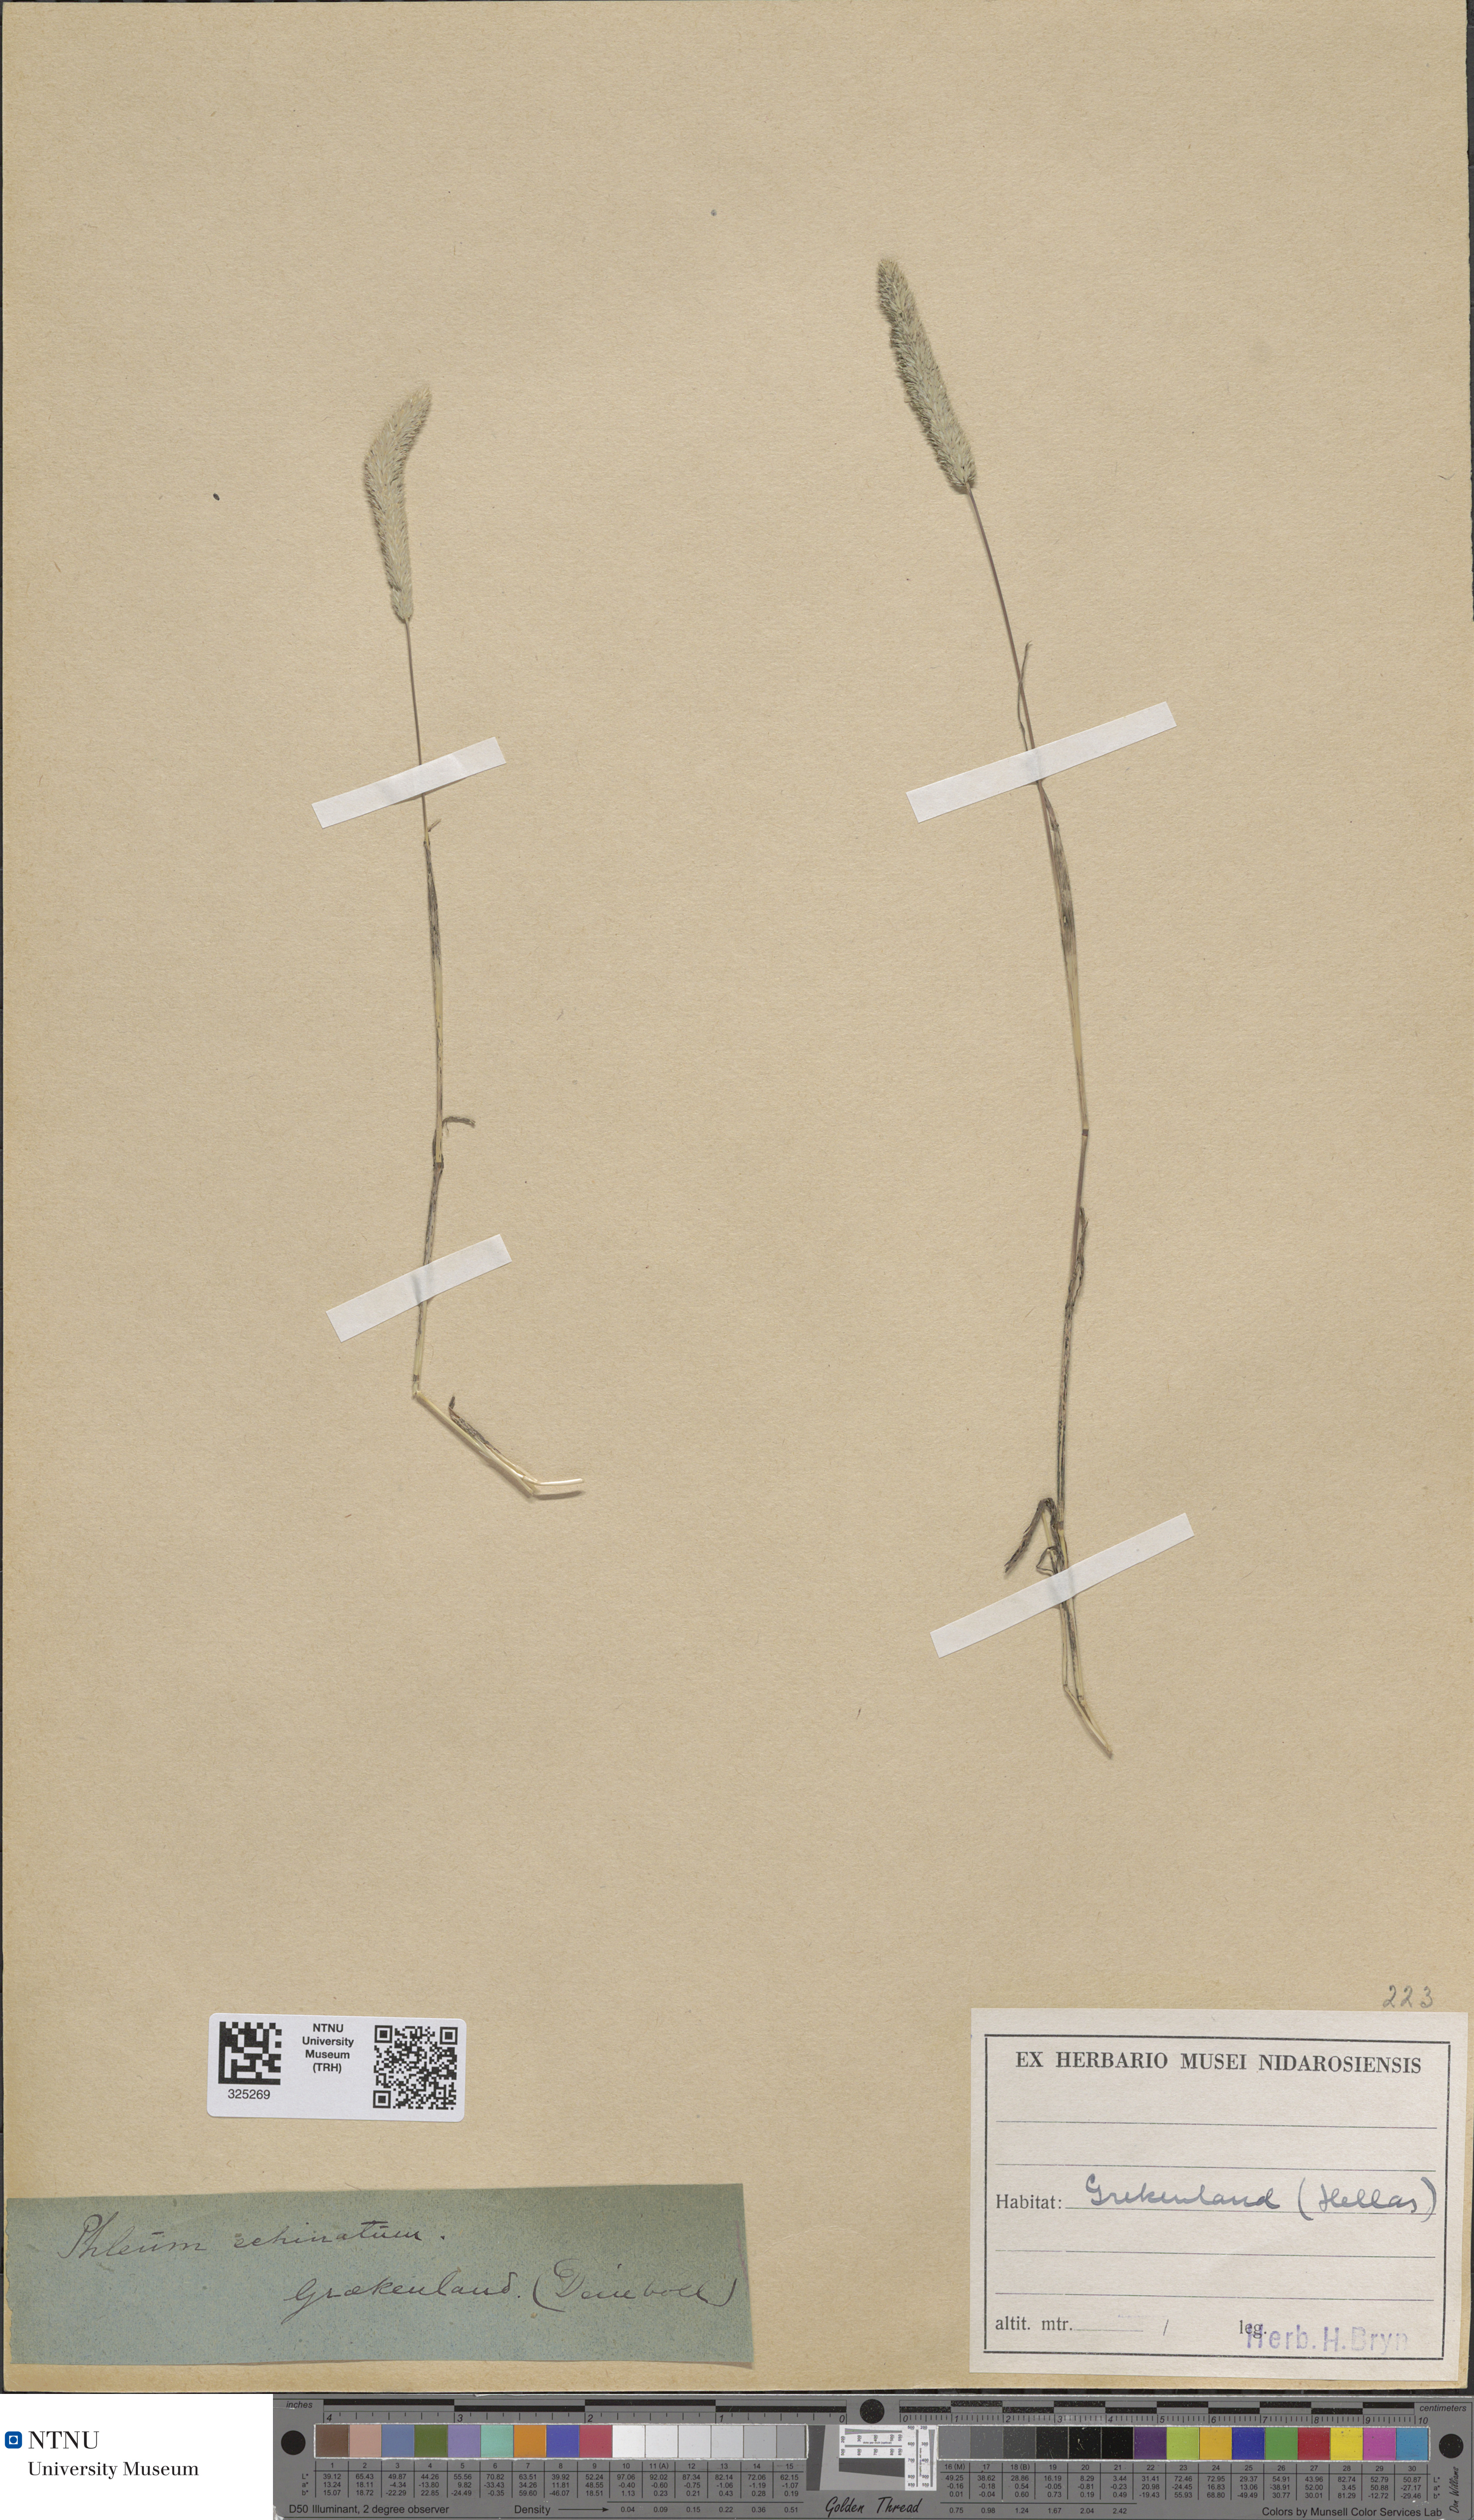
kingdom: Plantae
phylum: Tracheophyta
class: Liliopsida
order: Poales
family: Poaceae
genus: Phleum
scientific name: Phleum echinatum
